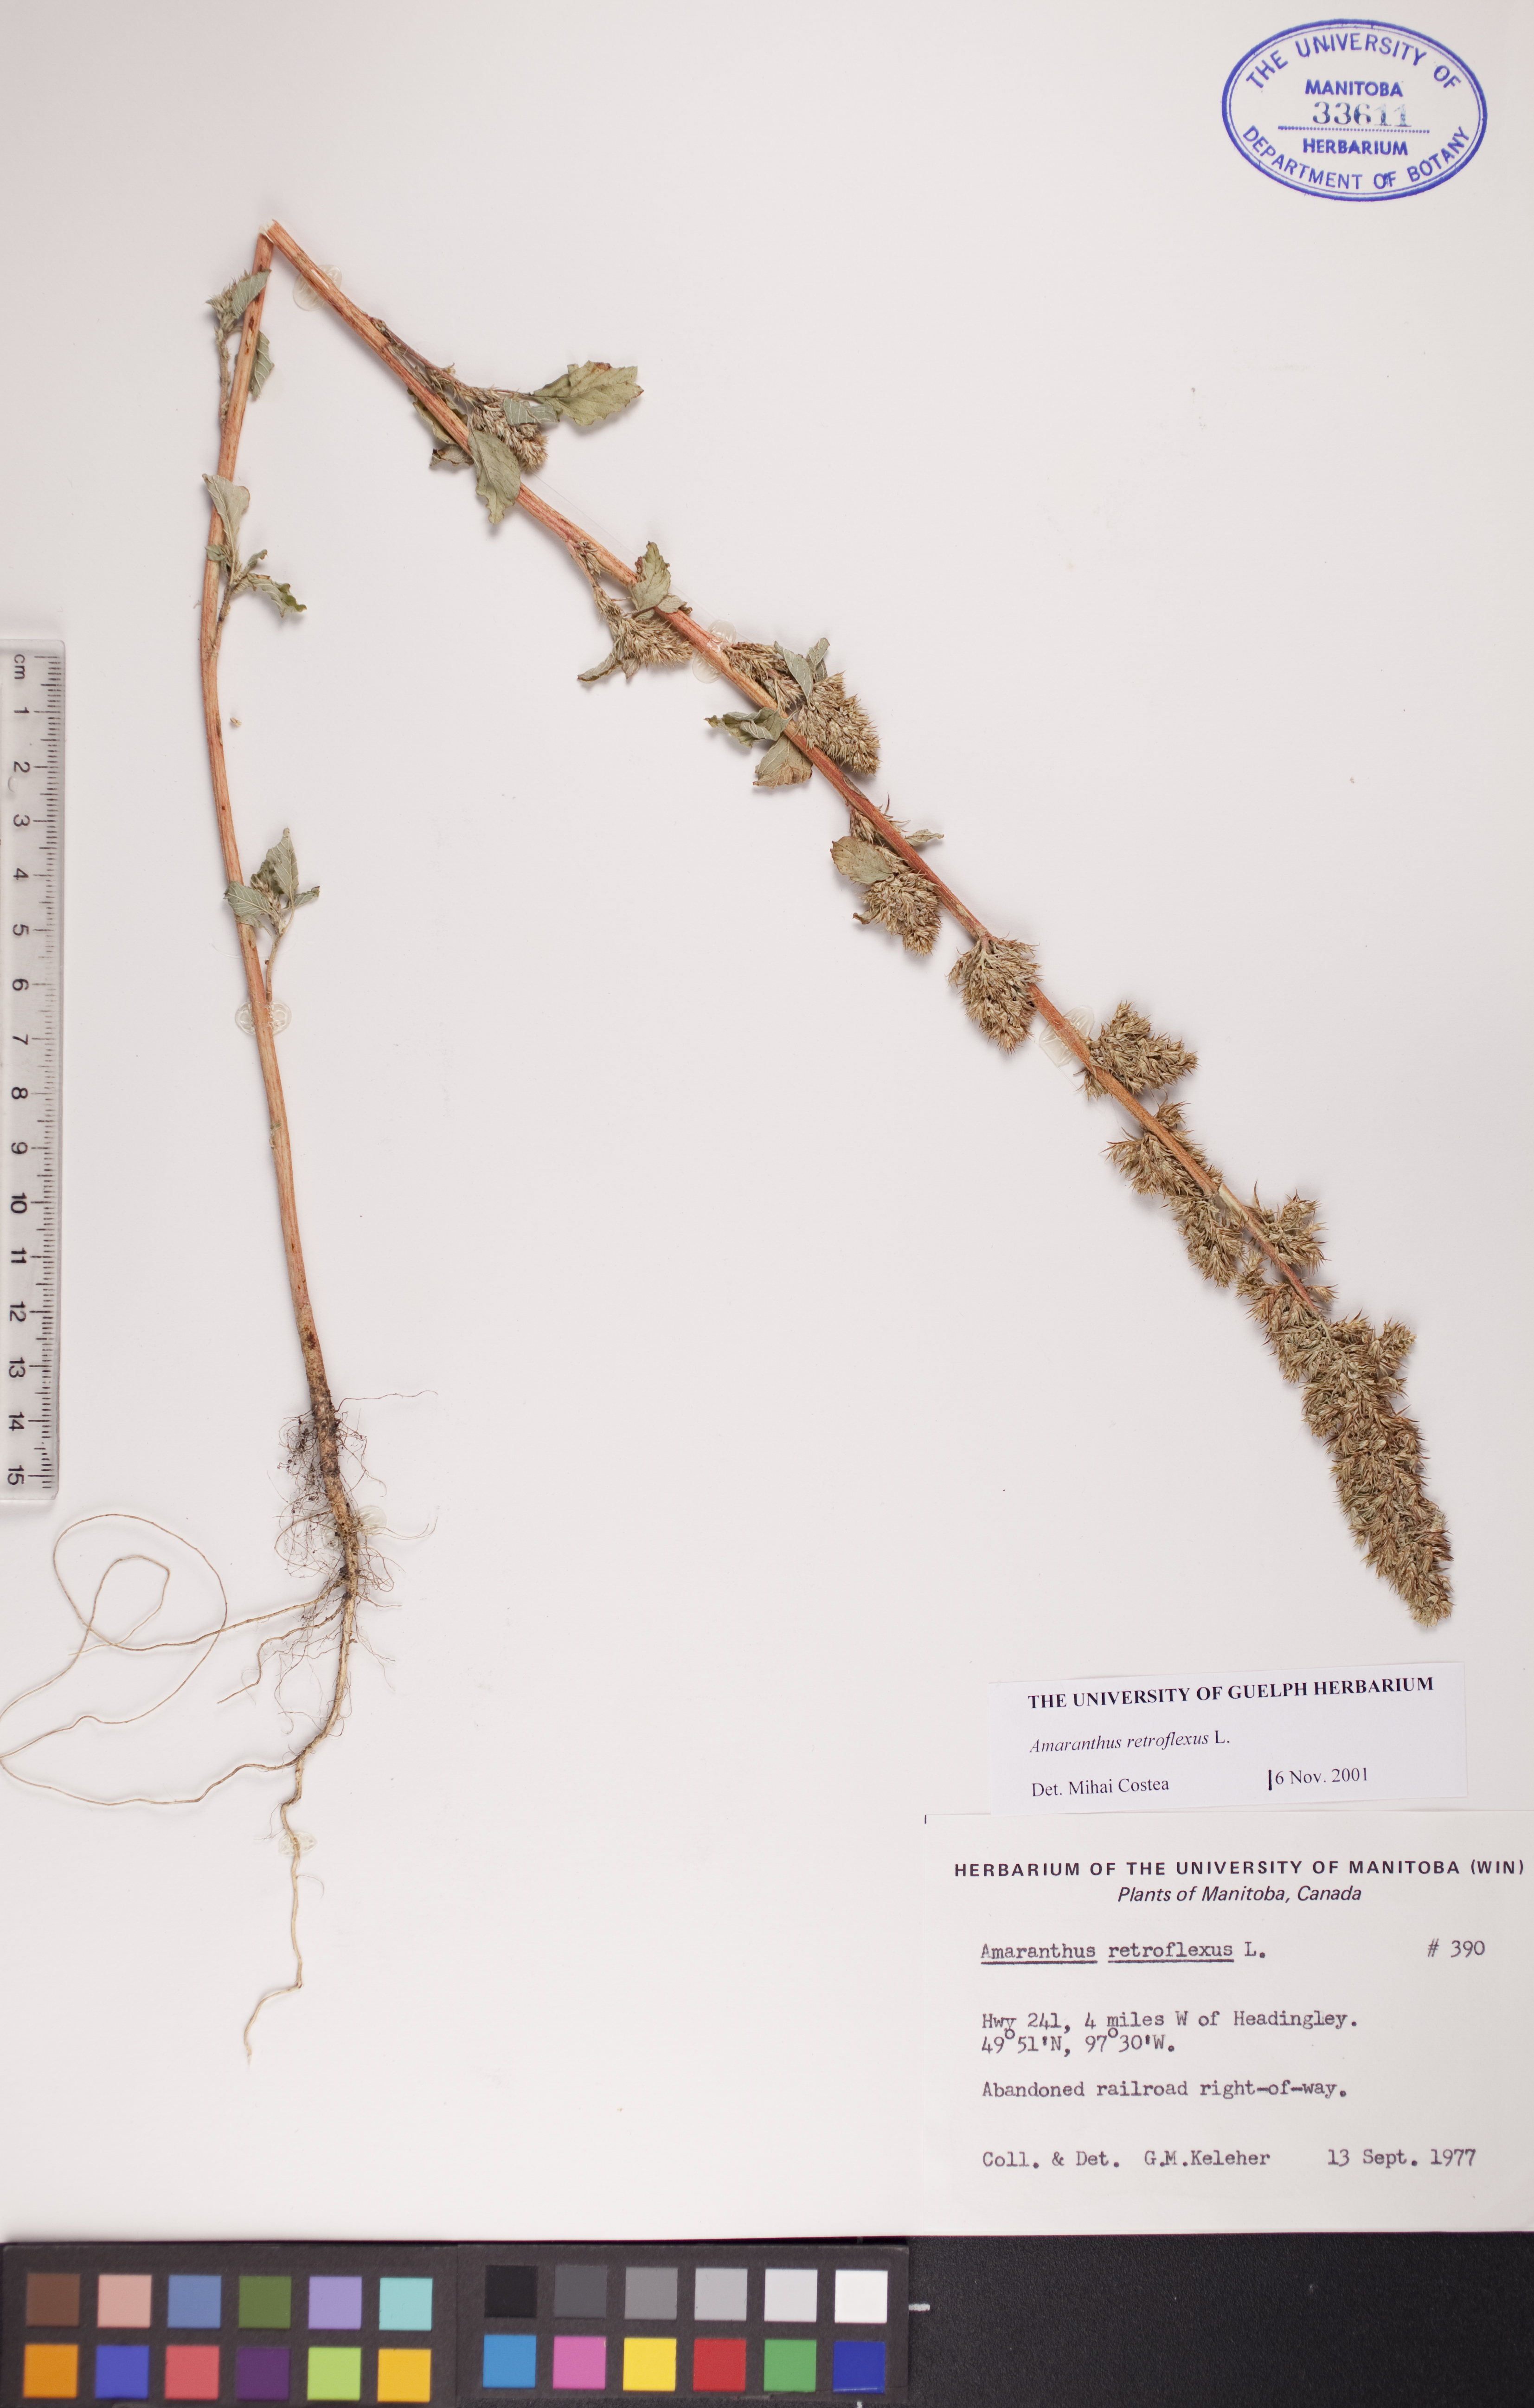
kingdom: Plantae
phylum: Tracheophyta
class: Magnoliopsida
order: Caryophyllales
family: Amaranthaceae
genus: Amaranthus
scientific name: Amaranthus retroflexus
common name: Redroot amaranth
